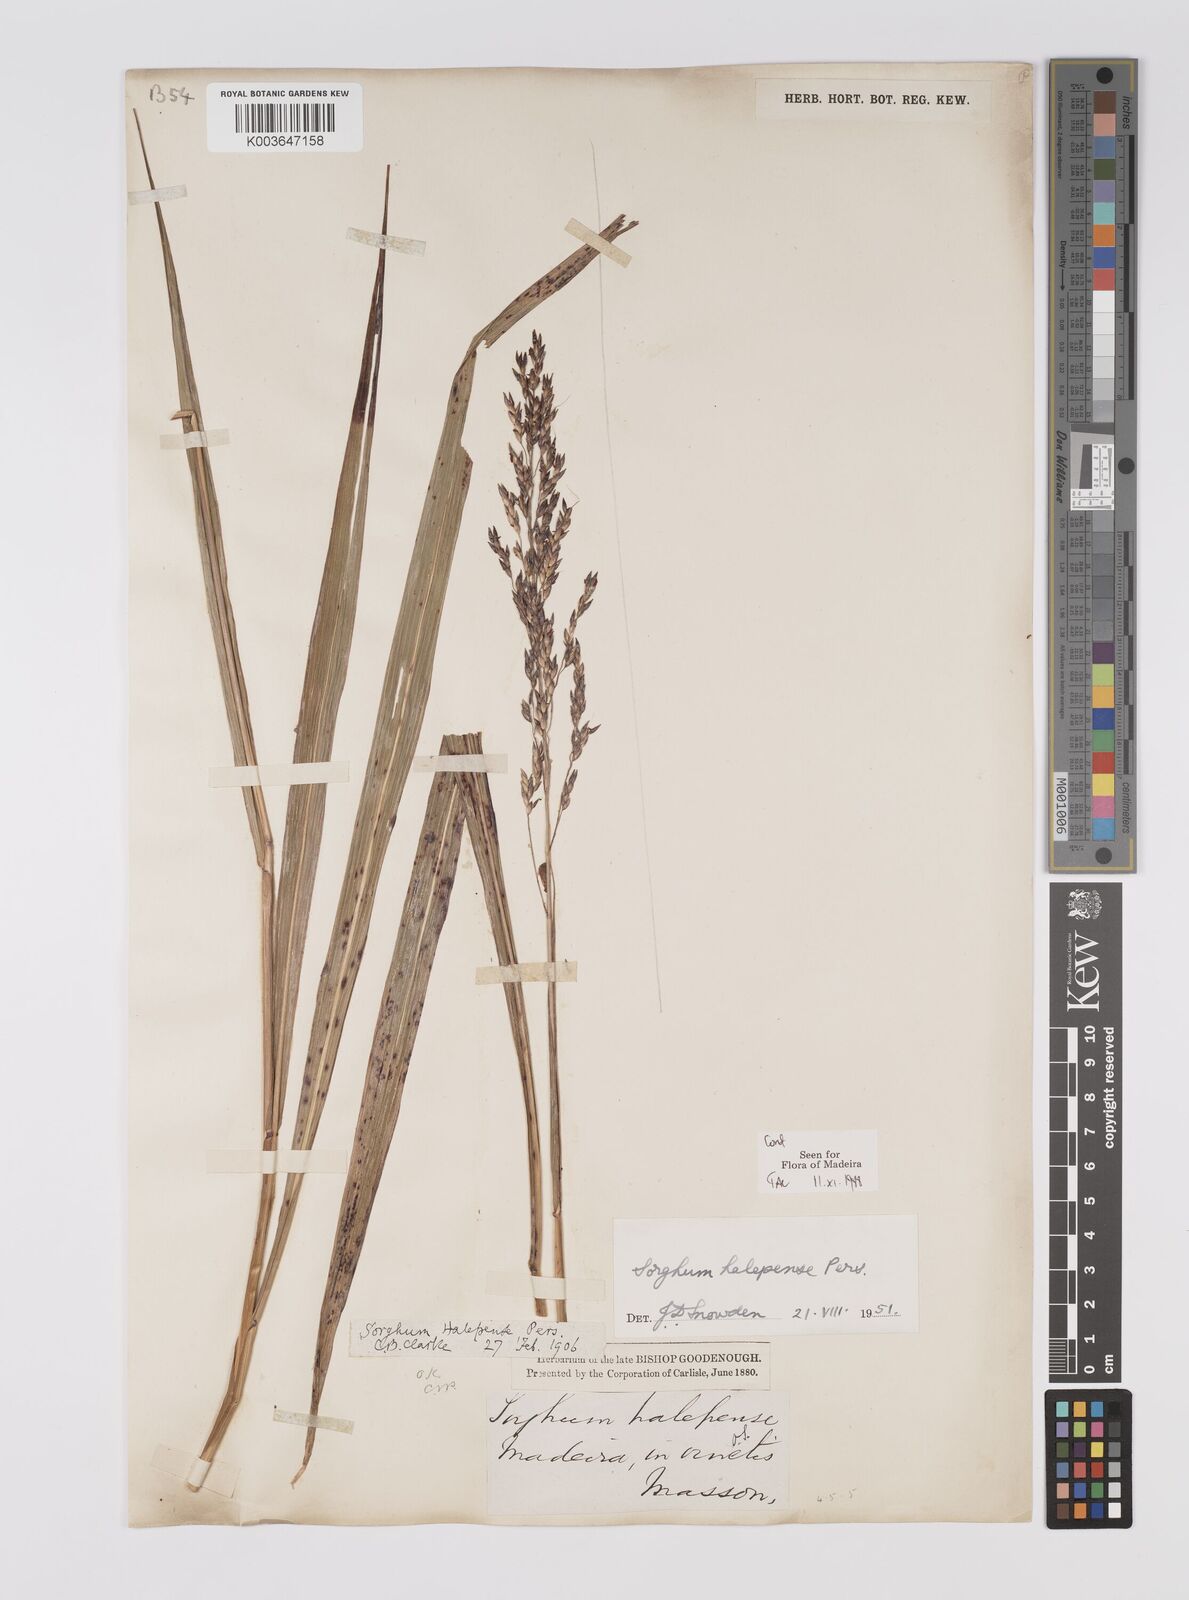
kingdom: Plantae
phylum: Tracheophyta
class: Liliopsida
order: Poales
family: Poaceae
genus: Sorghum
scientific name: Sorghum halepense
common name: Johnson-grass
